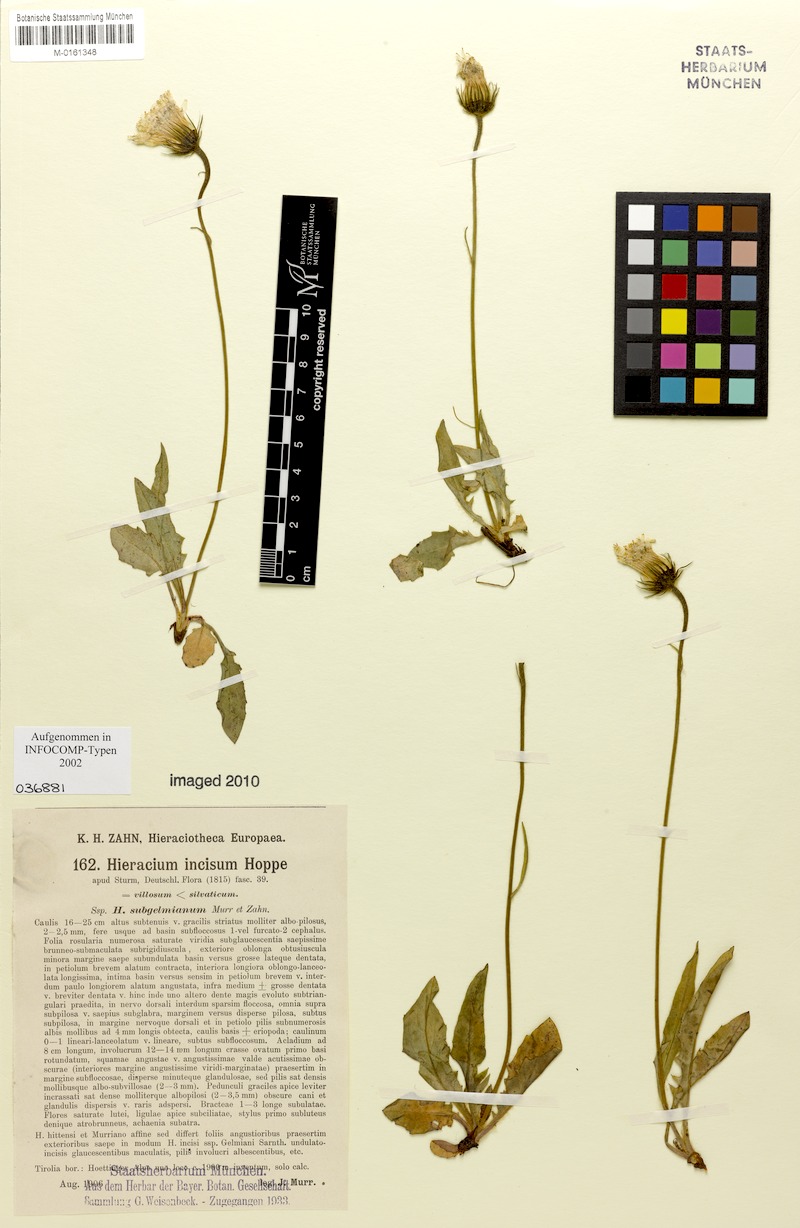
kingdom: Plantae
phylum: Tracheophyta
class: Magnoliopsida
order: Asterales
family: Asteraceae
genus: Hieracium
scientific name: Hieracium pallescens
